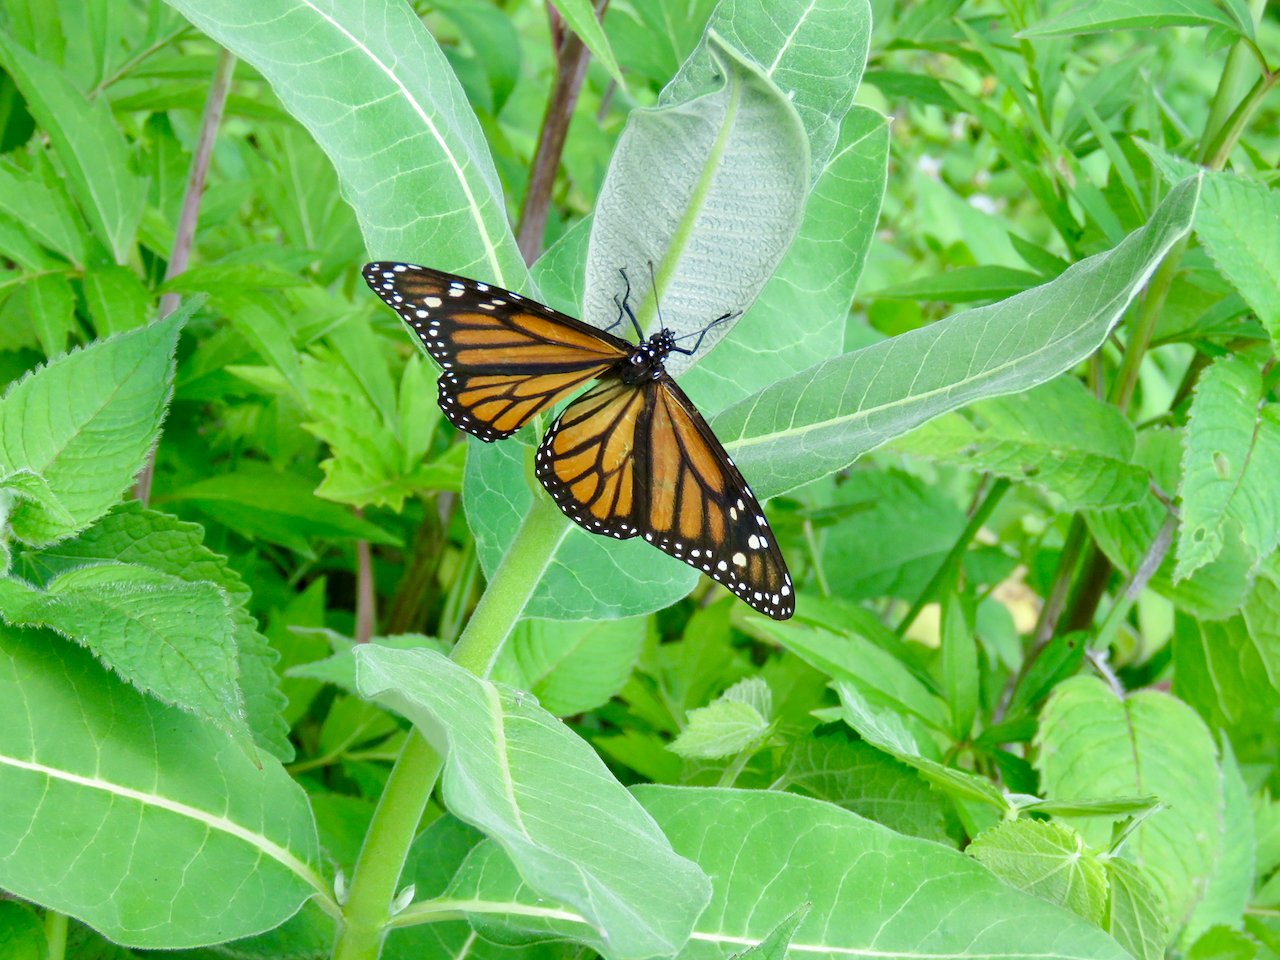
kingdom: Animalia
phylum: Arthropoda
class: Insecta
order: Lepidoptera
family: Nymphalidae
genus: Danaus
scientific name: Danaus plexippus
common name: Monarch
